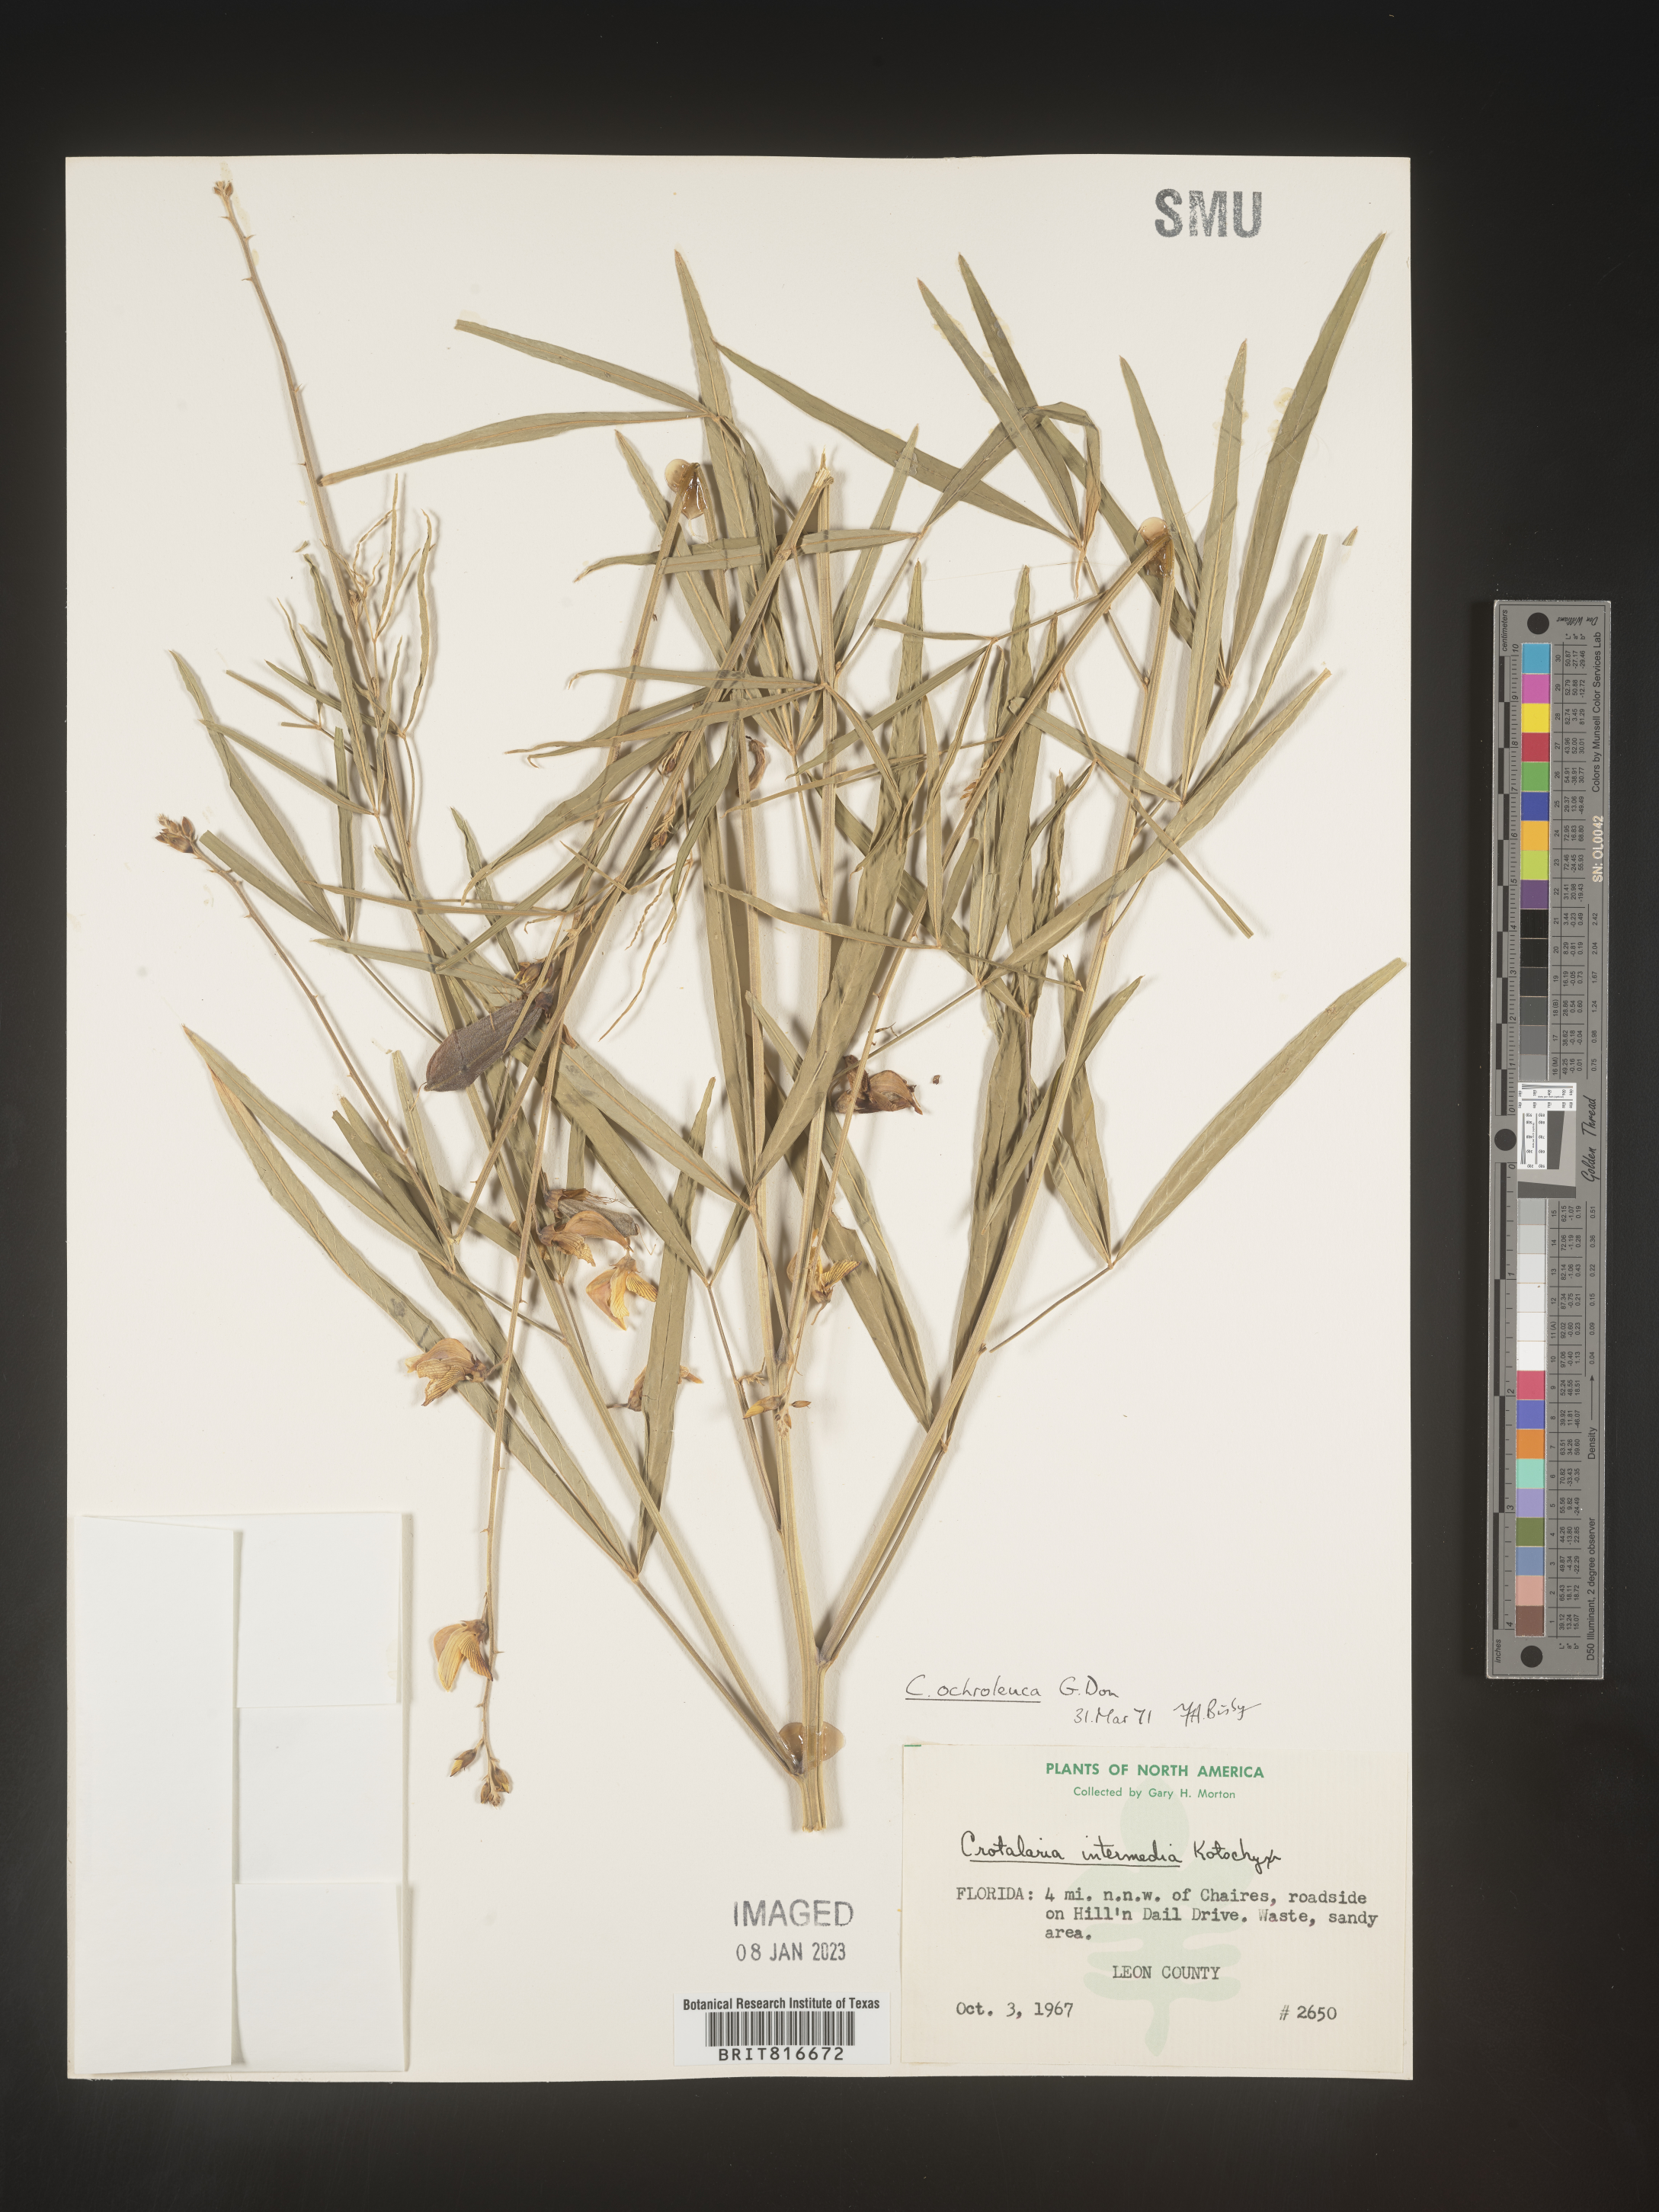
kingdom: Plantae
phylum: Tracheophyta
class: Magnoliopsida
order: Fabales
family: Fabaceae
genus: Crotalaria
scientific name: Crotalaria ochroleuca
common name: Slender leaf rattlebox
